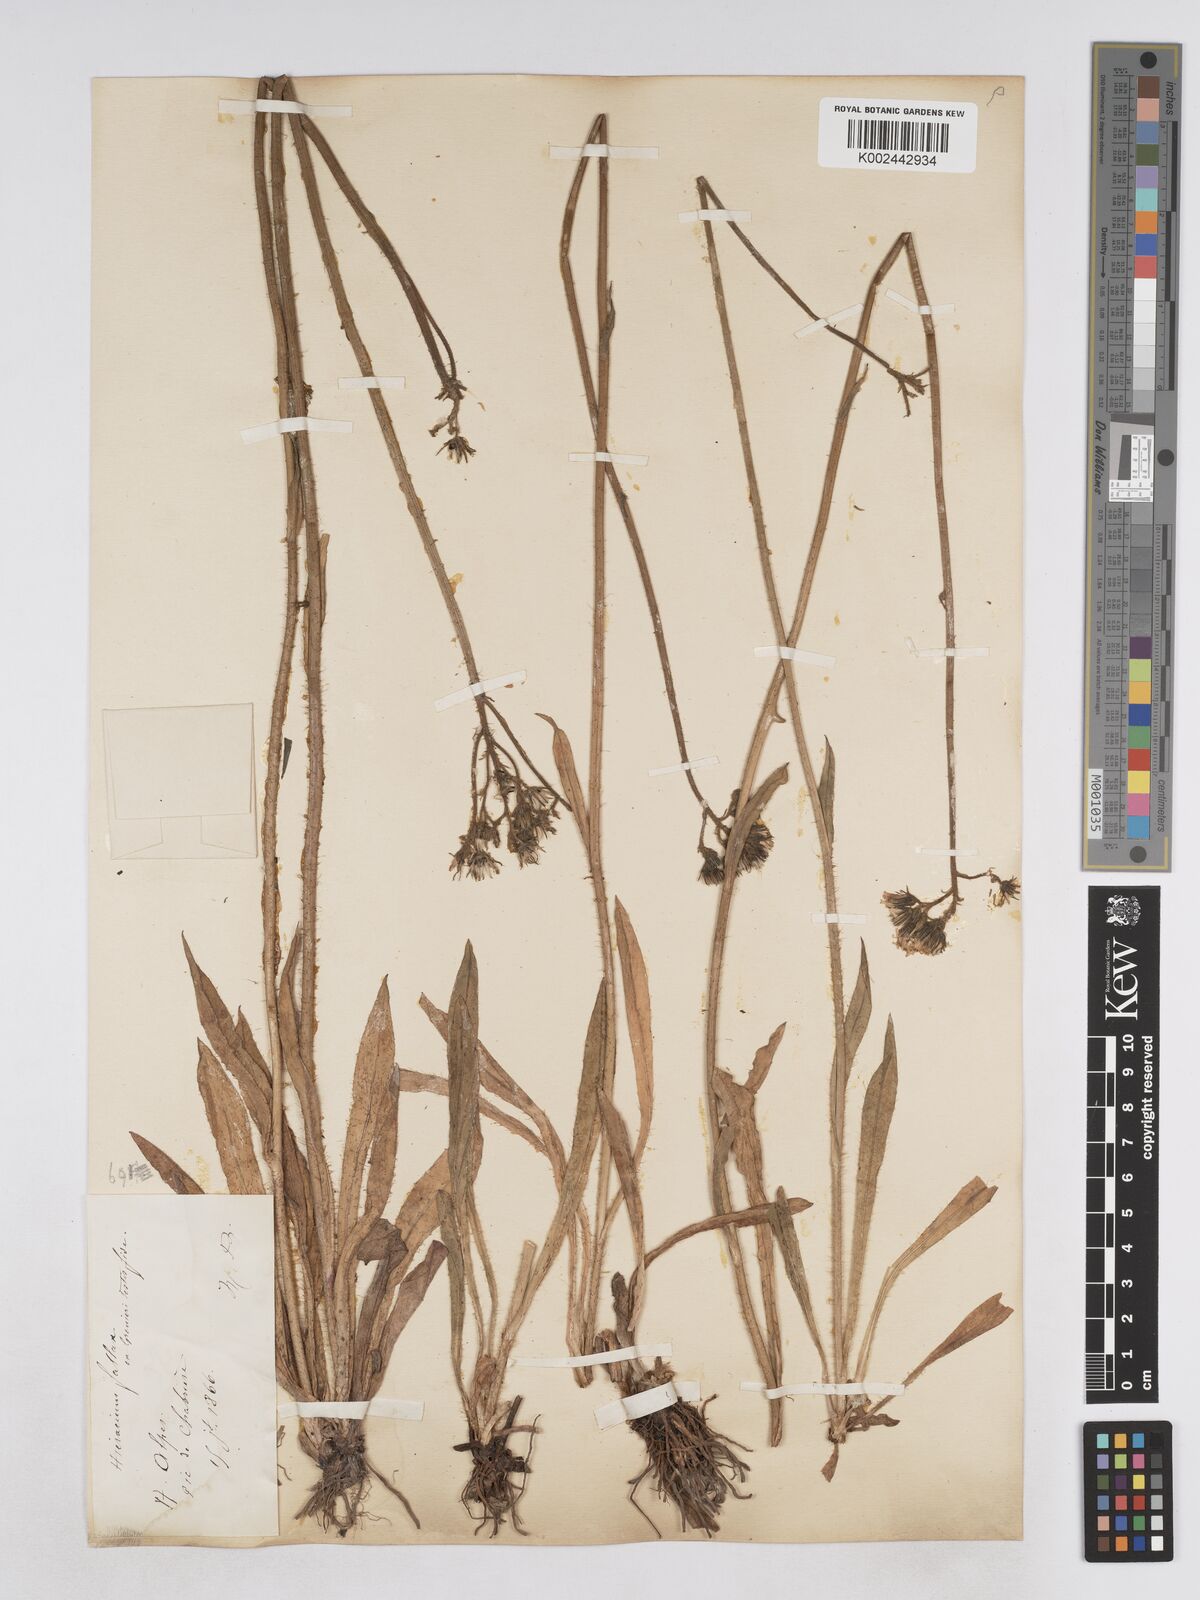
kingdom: Plantae
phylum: Tracheophyta
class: Magnoliopsida
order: Asterales
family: Asteraceae
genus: Pilosella
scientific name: Pilosella fallax
